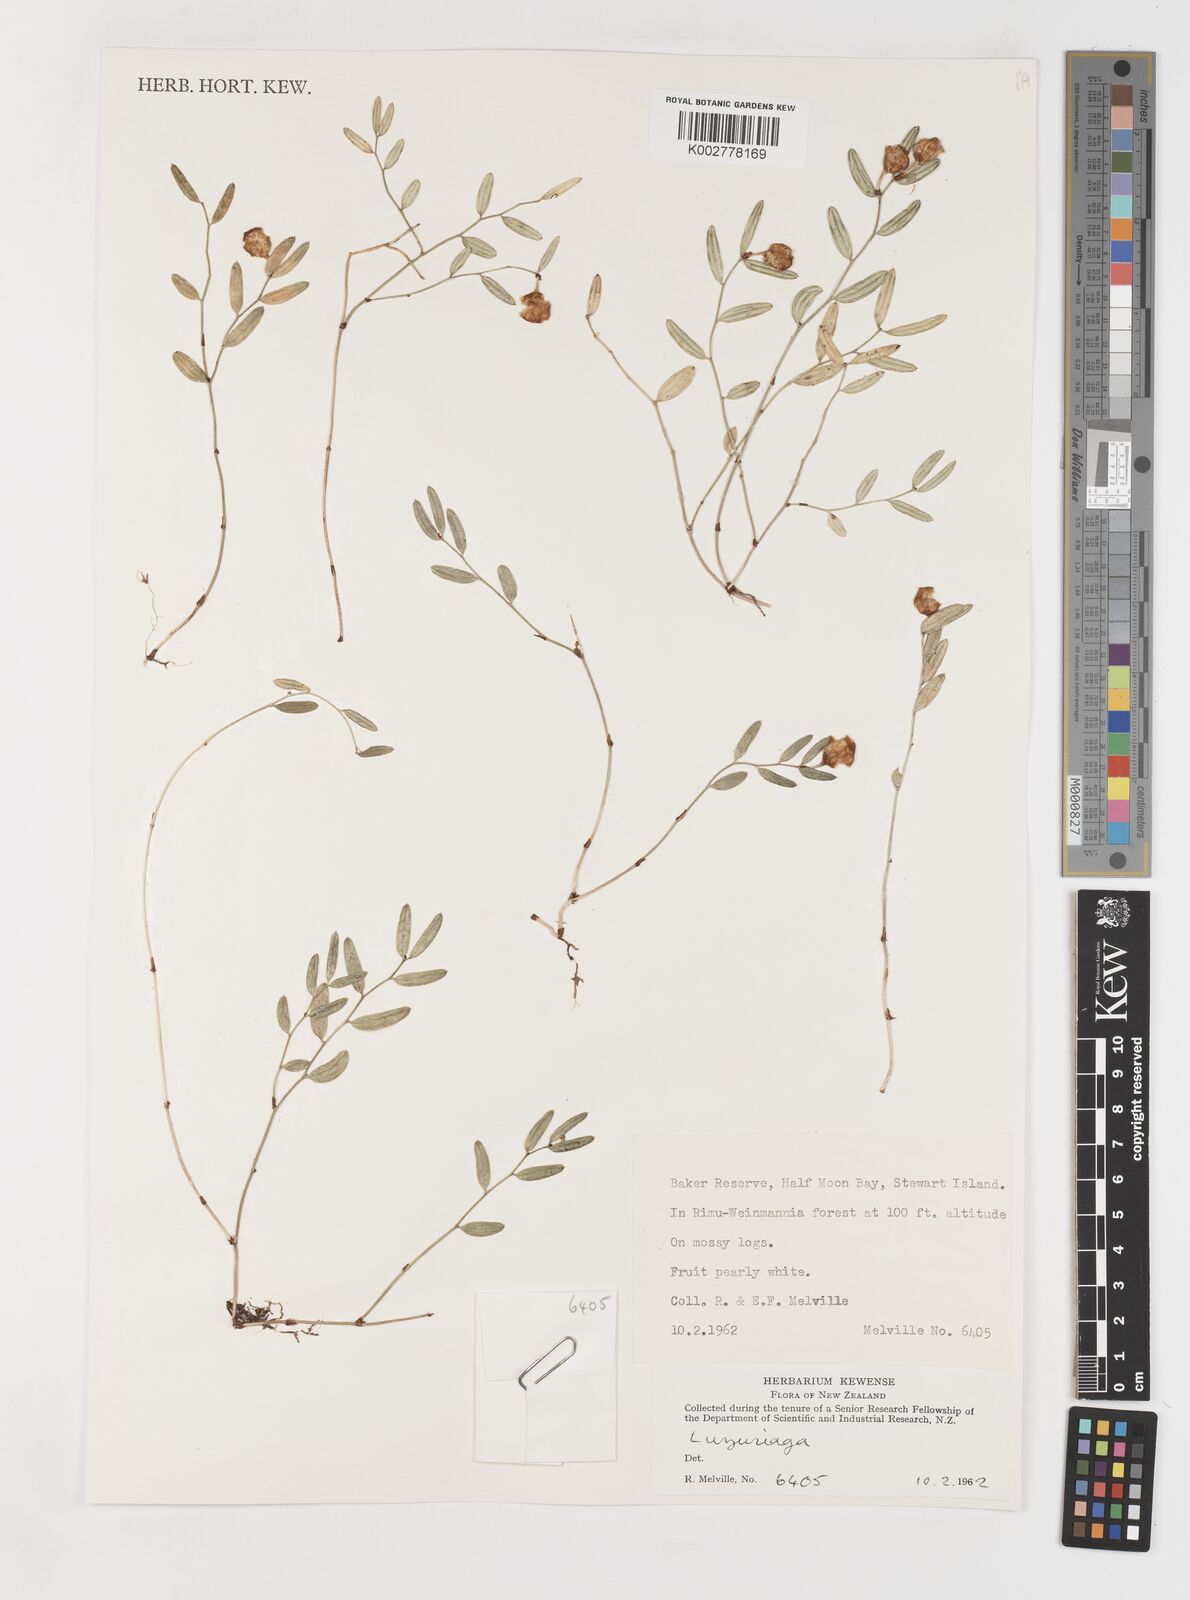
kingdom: Plantae
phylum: Tracheophyta
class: Liliopsida
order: Liliales
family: Alstroemeriaceae
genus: Luzuriaga
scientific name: Luzuriaga parviflora
